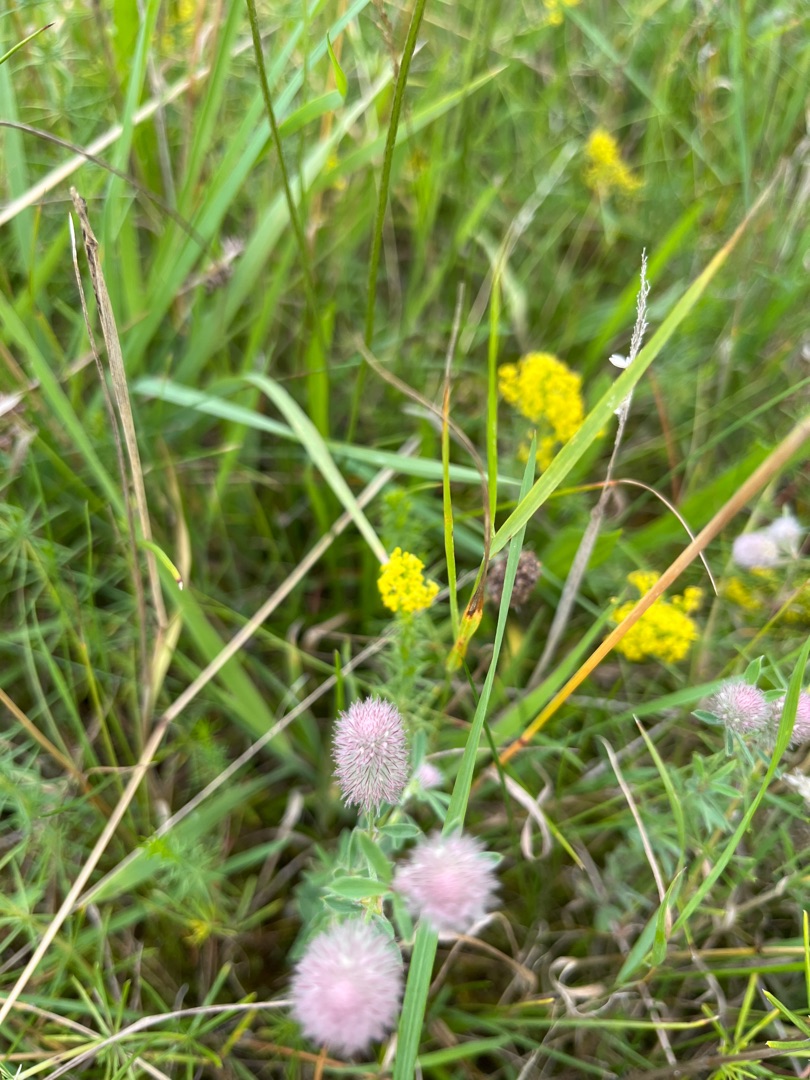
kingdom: Plantae
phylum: Tracheophyta
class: Magnoliopsida
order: Fabales
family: Fabaceae
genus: Trifolium
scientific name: Trifolium arvense
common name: Hare-kløver
